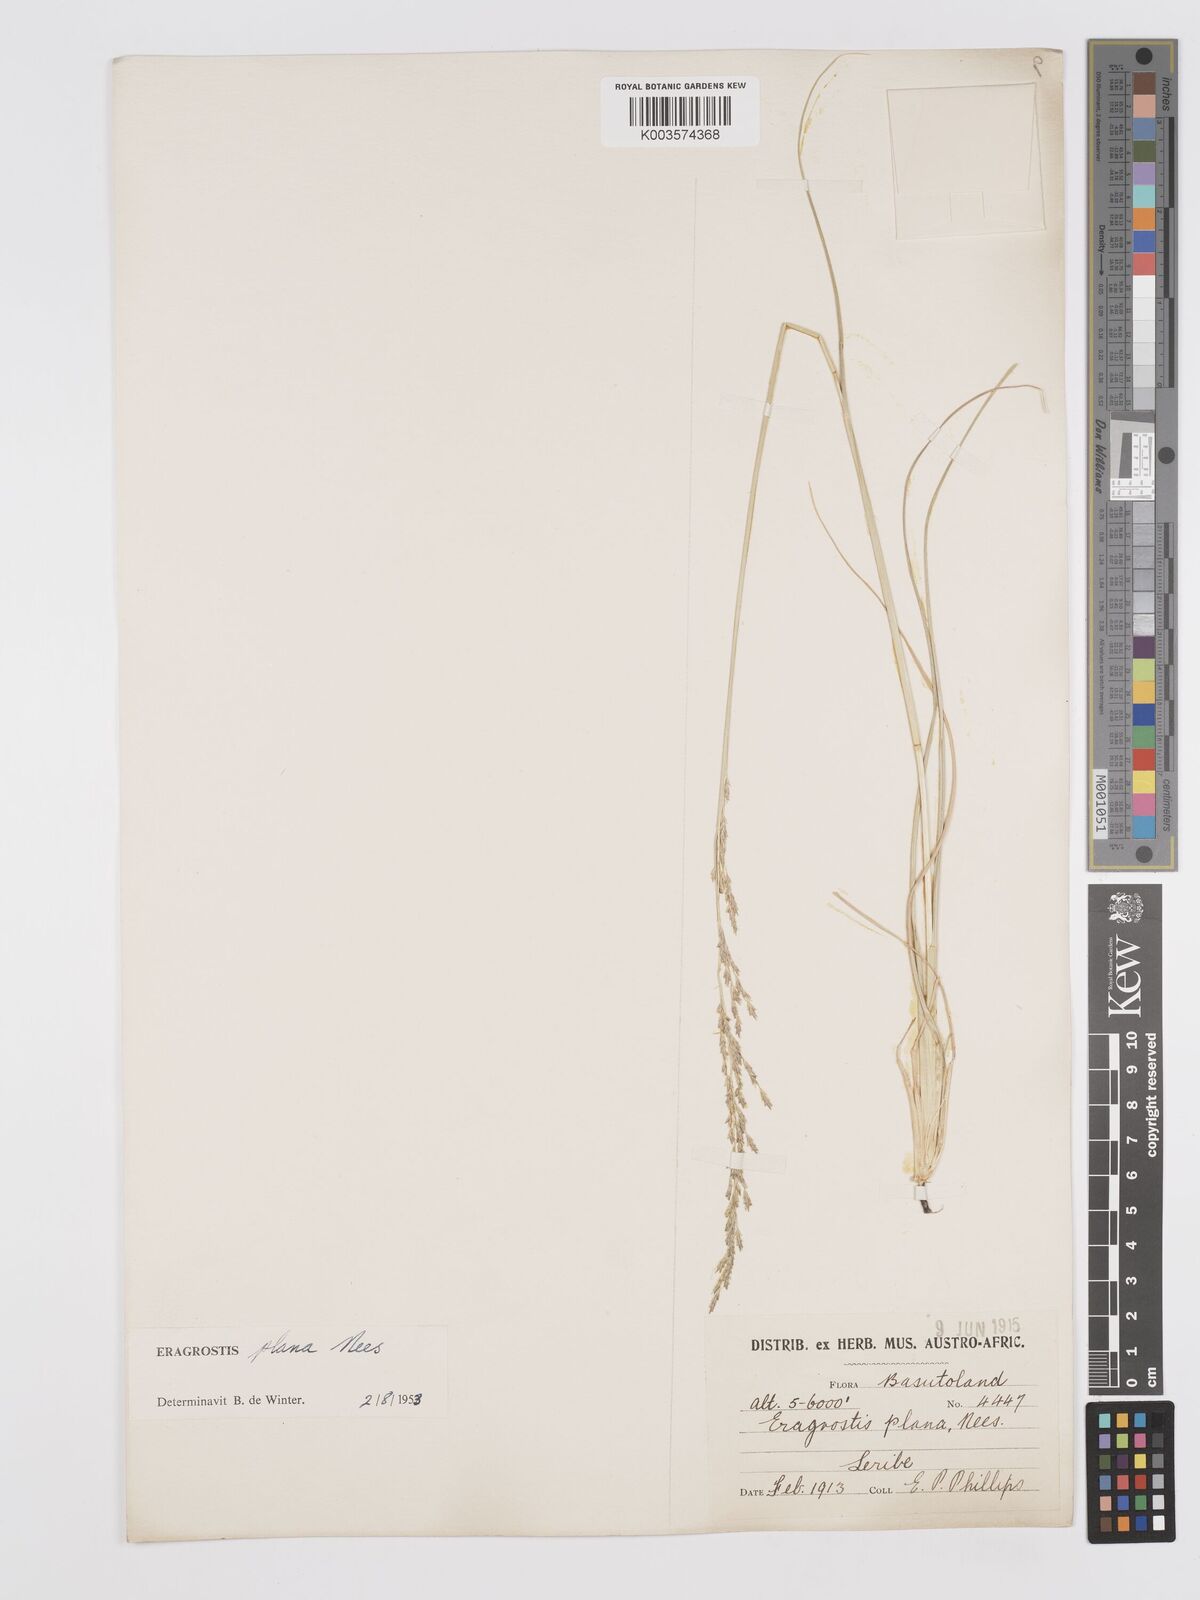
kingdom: Plantae
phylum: Tracheophyta
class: Liliopsida
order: Poales
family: Poaceae
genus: Eragrostis
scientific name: Eragrostis plana
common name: South african lovegrass
